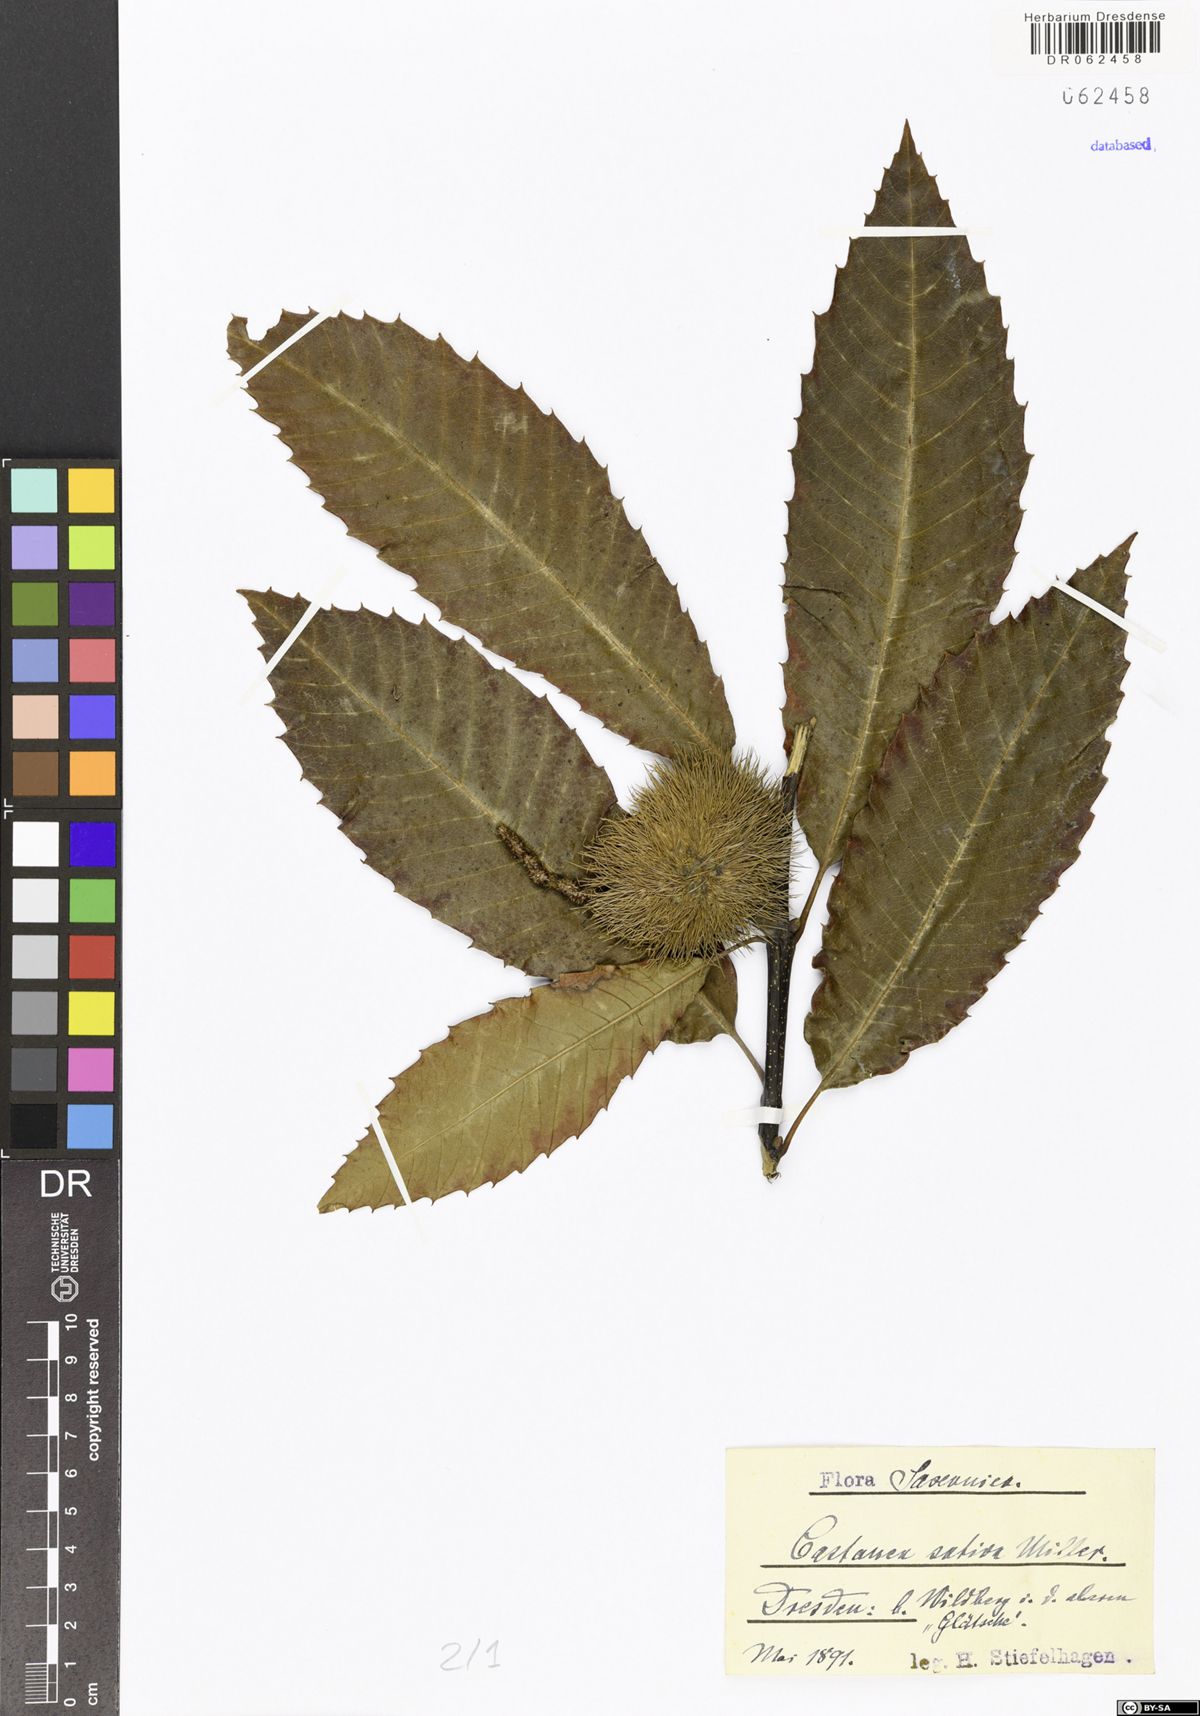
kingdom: Plantae
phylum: Tracheophyta
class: Magnoliopsida
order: Fagales
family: Fagaceae
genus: Castanea
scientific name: Castanea sativa
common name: Sweet chestnut
